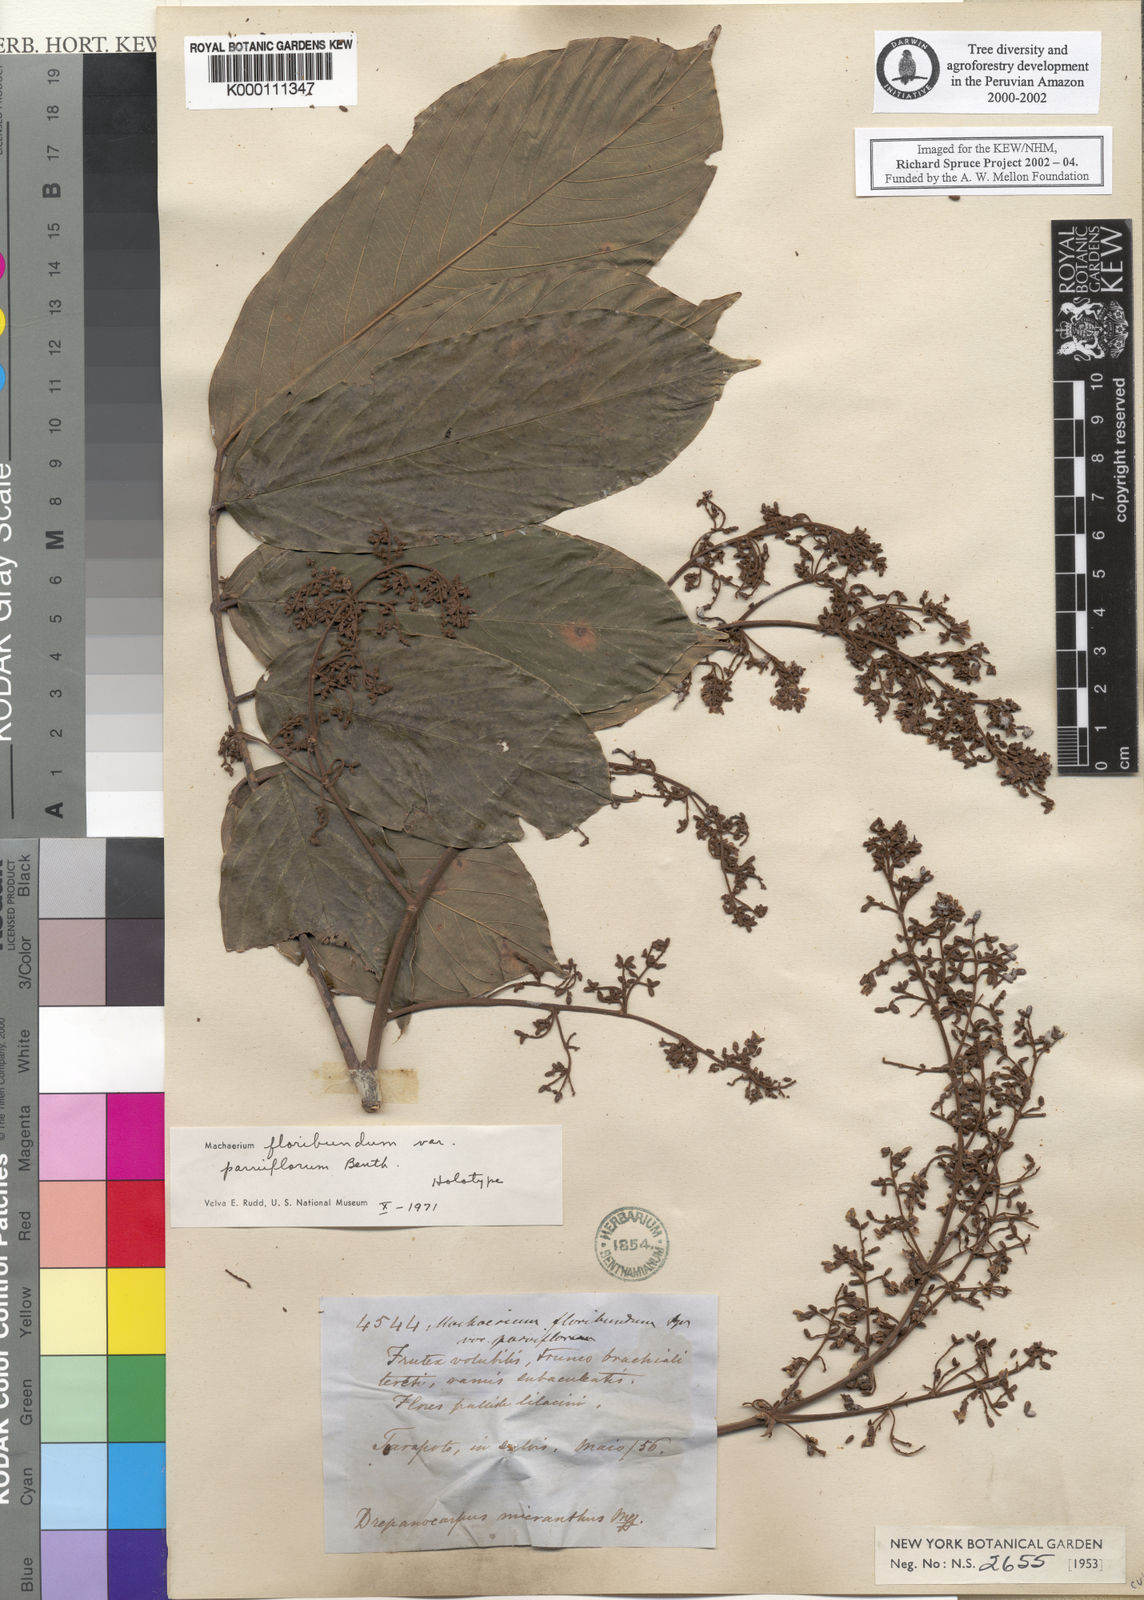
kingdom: Plantae
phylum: Tracheophyta
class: Magnoliopsida
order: Fabales
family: Fabaceae
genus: Machaerium
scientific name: Machaerium floribundum
